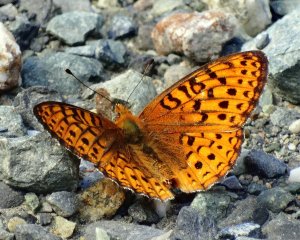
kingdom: Animalia
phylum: Arthropoda
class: Insecta
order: Lepidoptera
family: Nymphalidae
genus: Speyeria
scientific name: Speyeria atlantis
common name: Northwestern Fritillary
